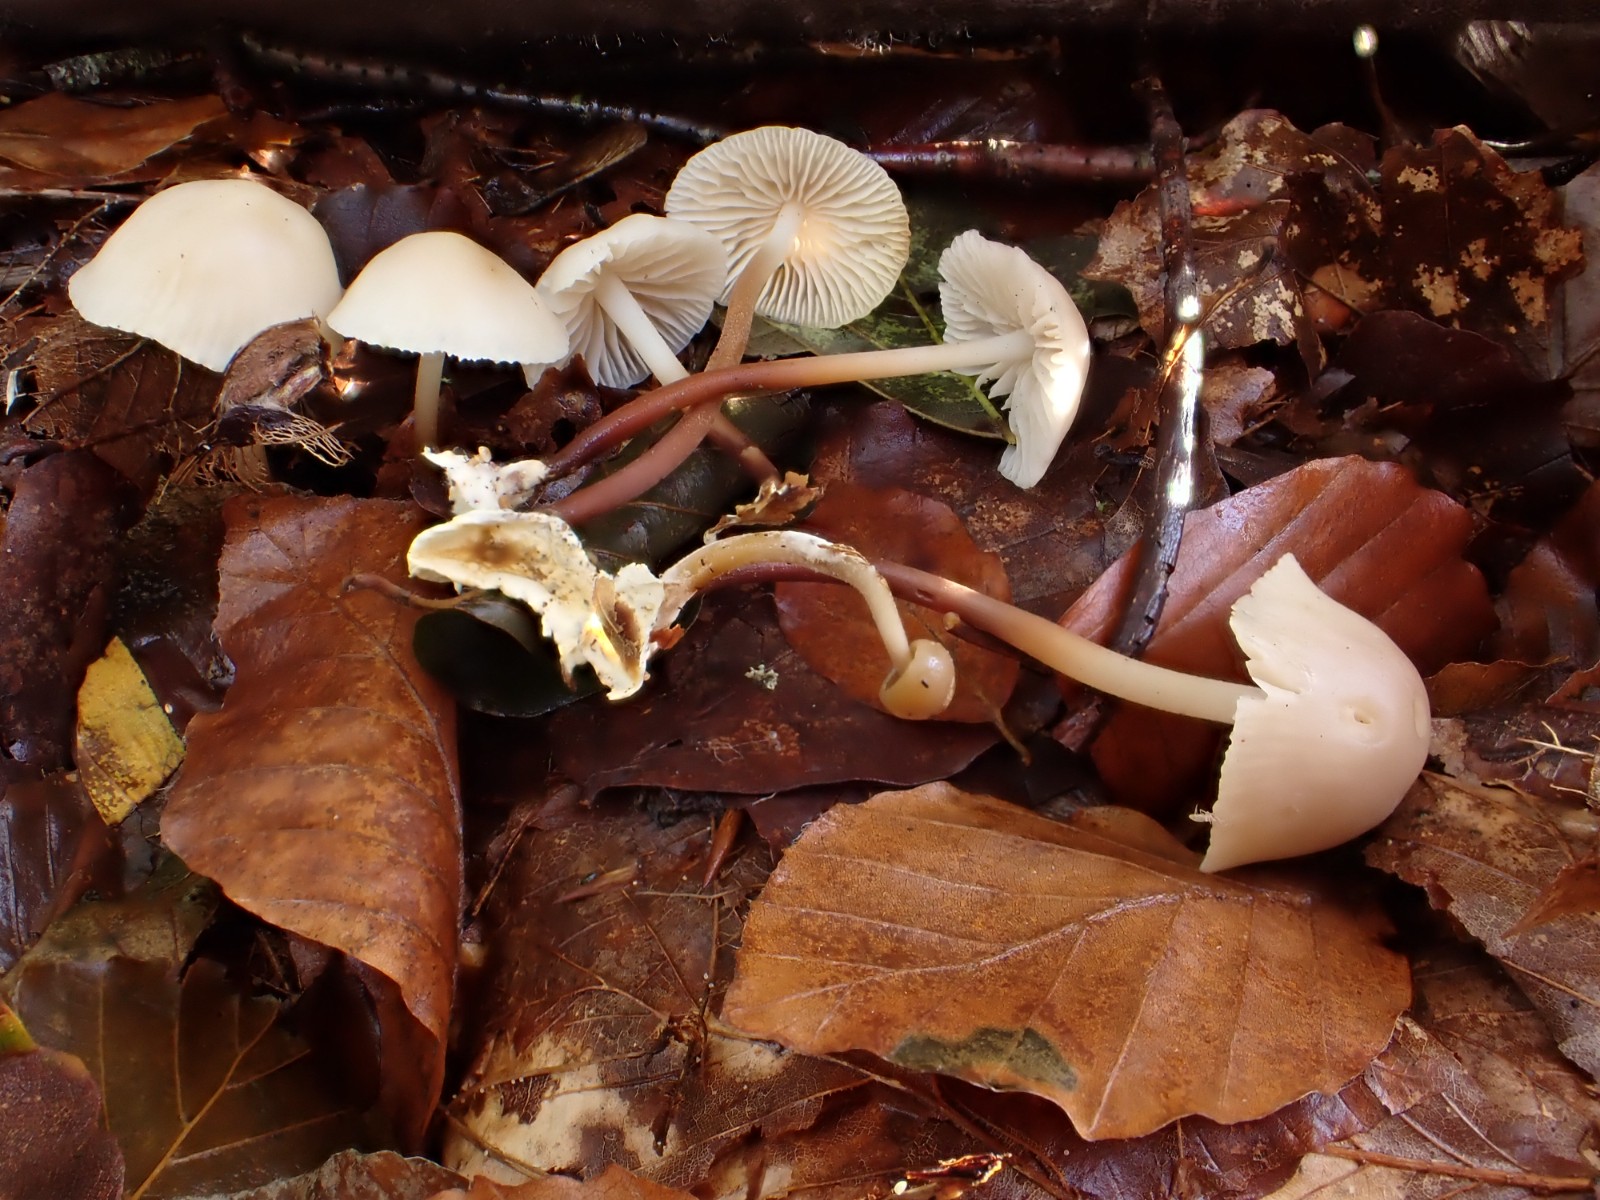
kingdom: Fungi
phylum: Basidiomycota
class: Agaricomycetes
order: Agaricales
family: Marasmiaceae
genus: Marasmius
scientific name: Marasmius torquescens
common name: filtfodet bruskhat
